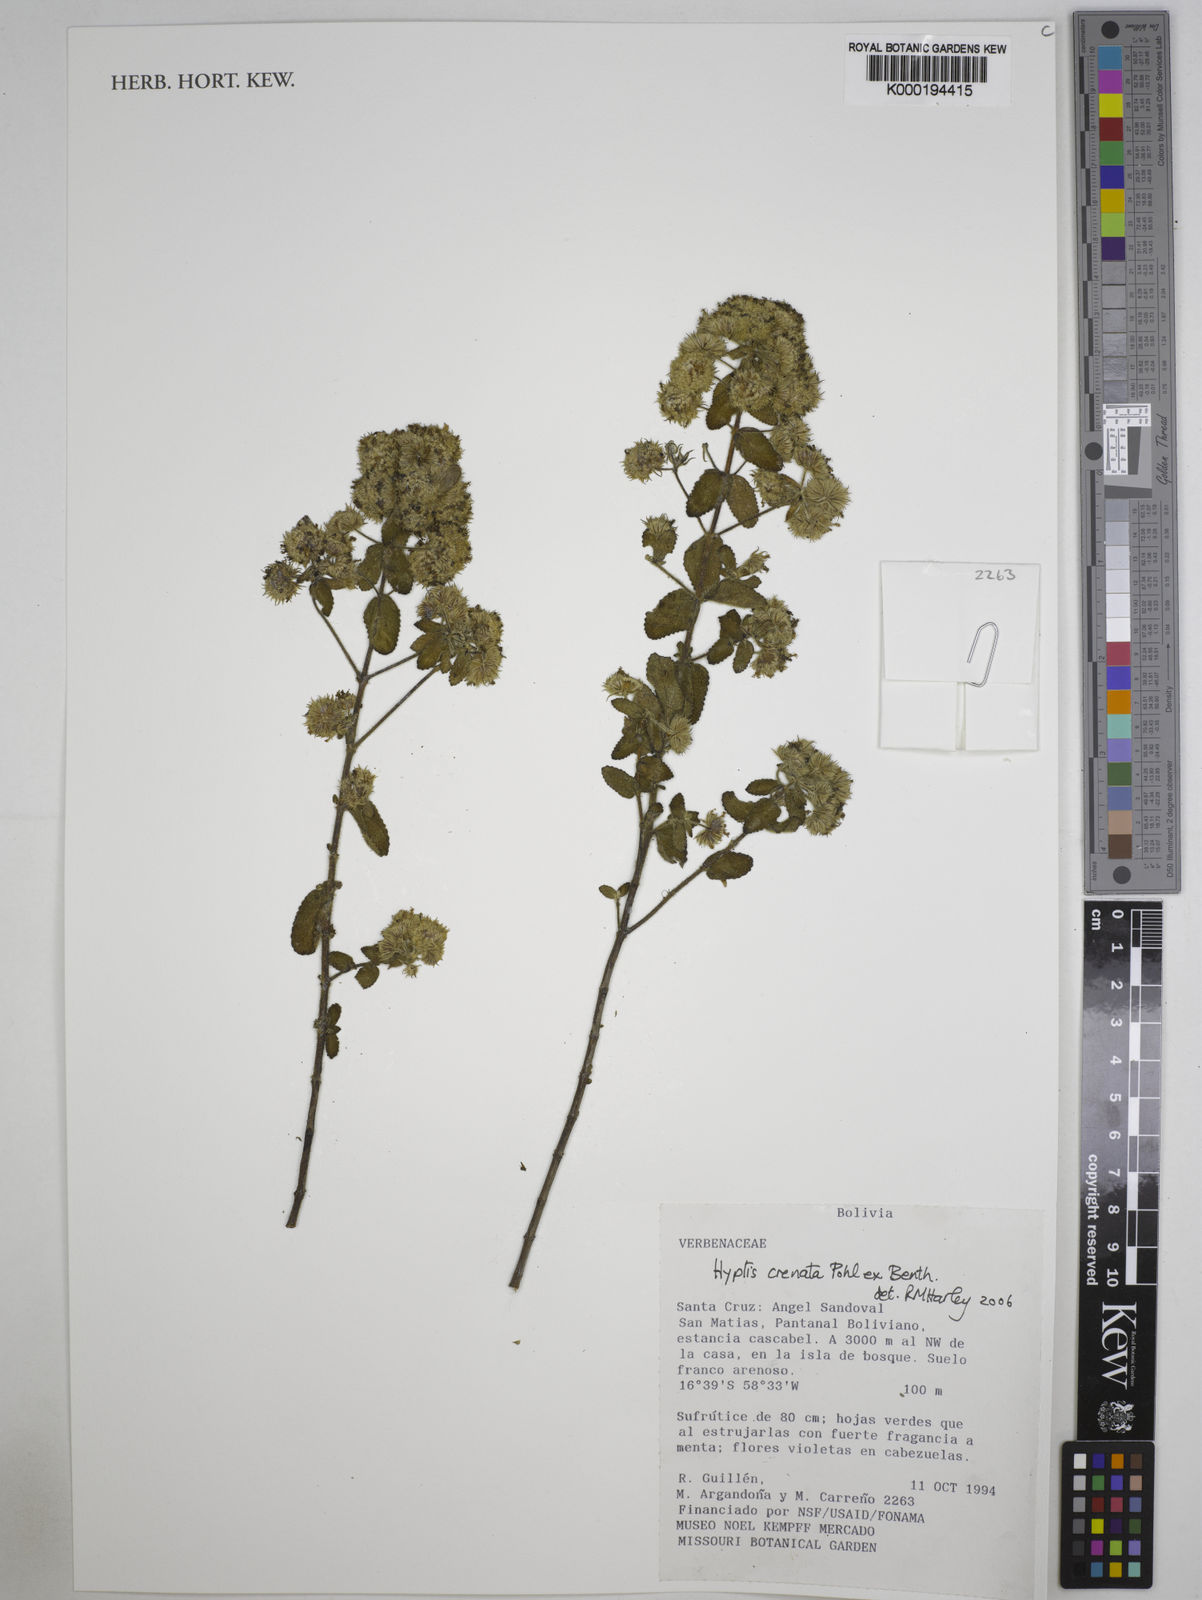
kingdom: Plantae
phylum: Tracheophyta
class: Magnoliopsida
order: Lamiales
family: Lamiaceae
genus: Hyptis
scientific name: Hyptis crenata
